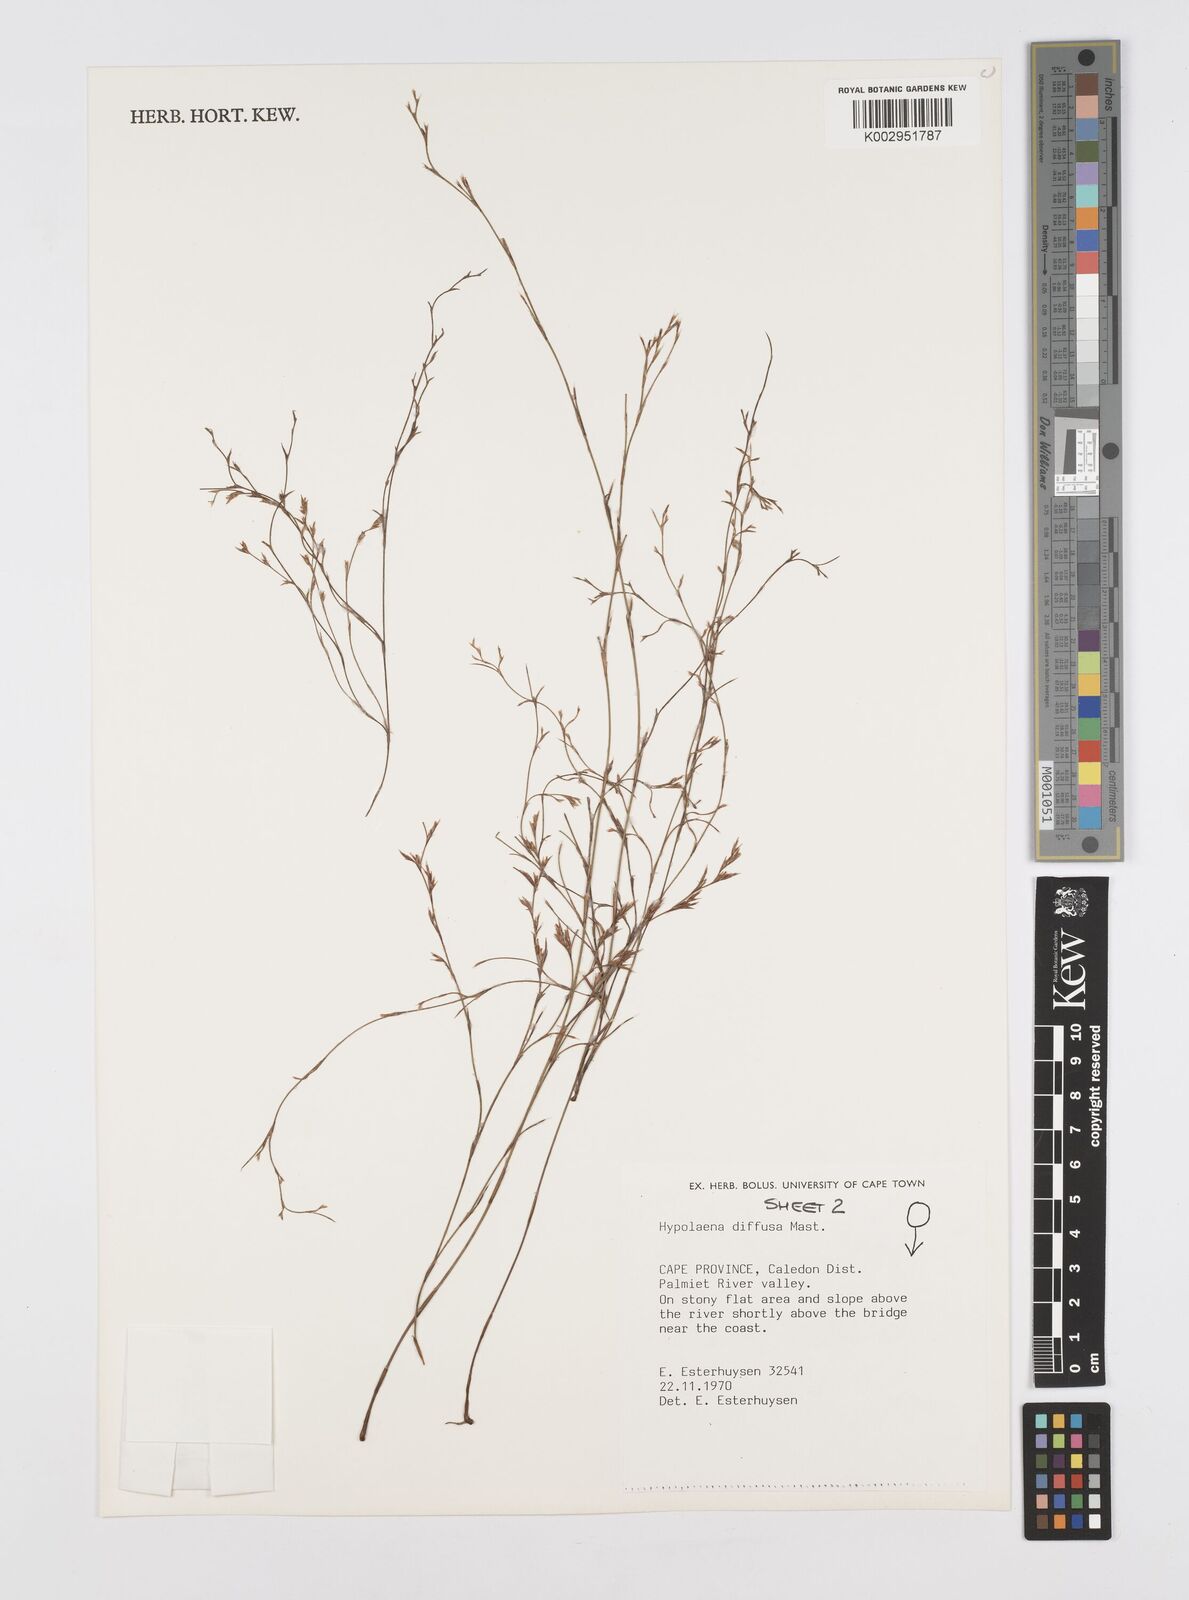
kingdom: Plantae
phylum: Tracheophyta
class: Liliopsida
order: Poales
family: Restionaceae
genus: Restio
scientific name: Restio versatilis
